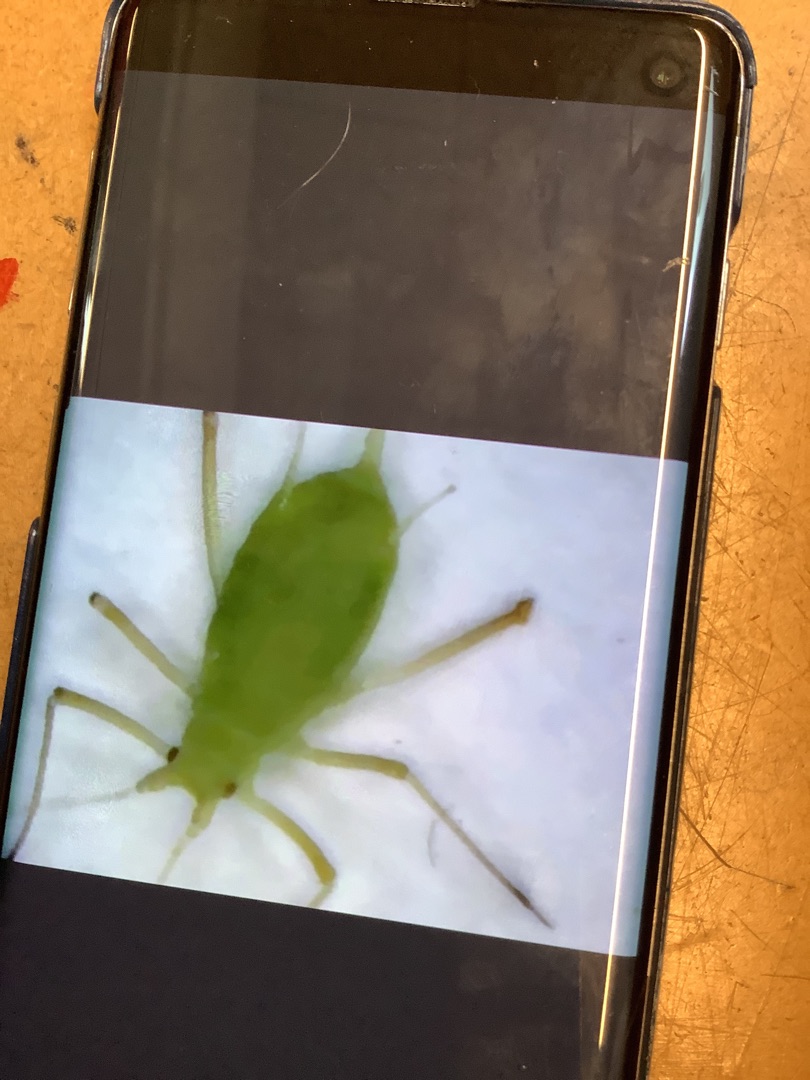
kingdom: Animalia
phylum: Arthropoda
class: Insecta
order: Hemiptera
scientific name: Hemiptera
